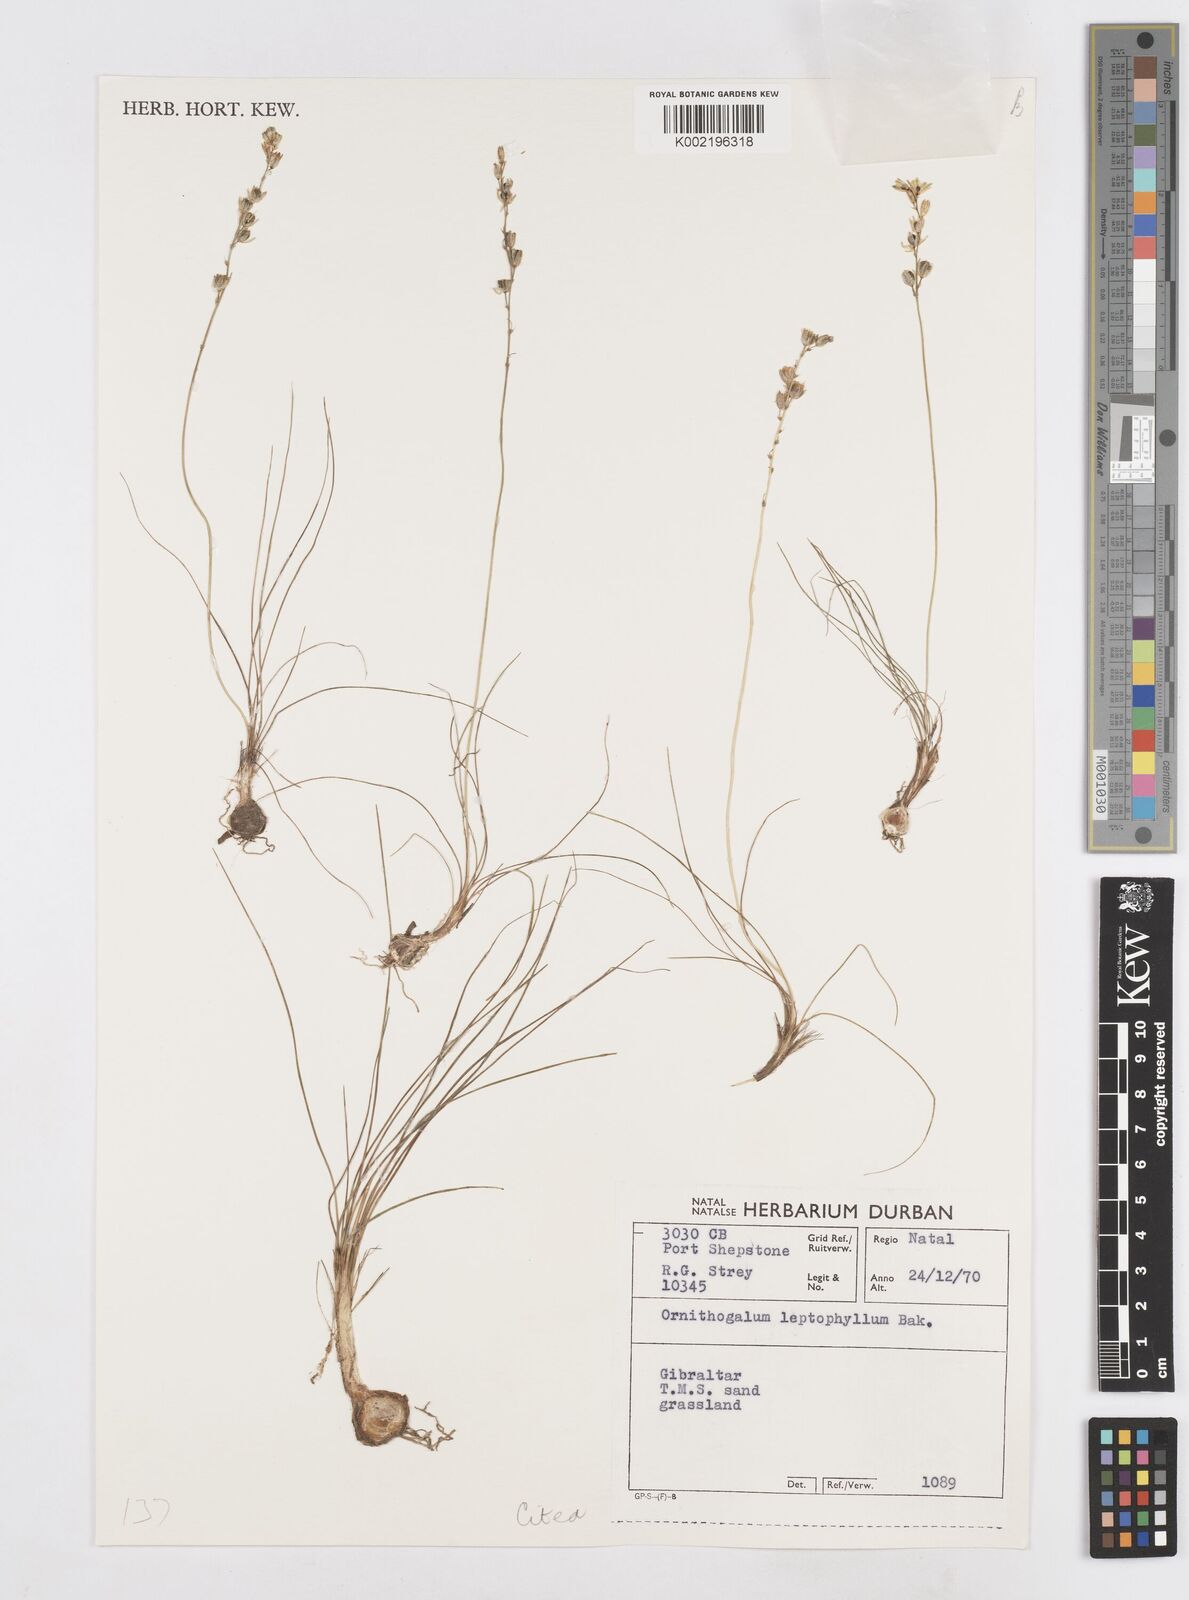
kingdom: Plantae
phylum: Tracheophyta
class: Liliopsida
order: Asparagales
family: Asparagaceae
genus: Ornithogalum
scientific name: Ornithogalum juncifolium
